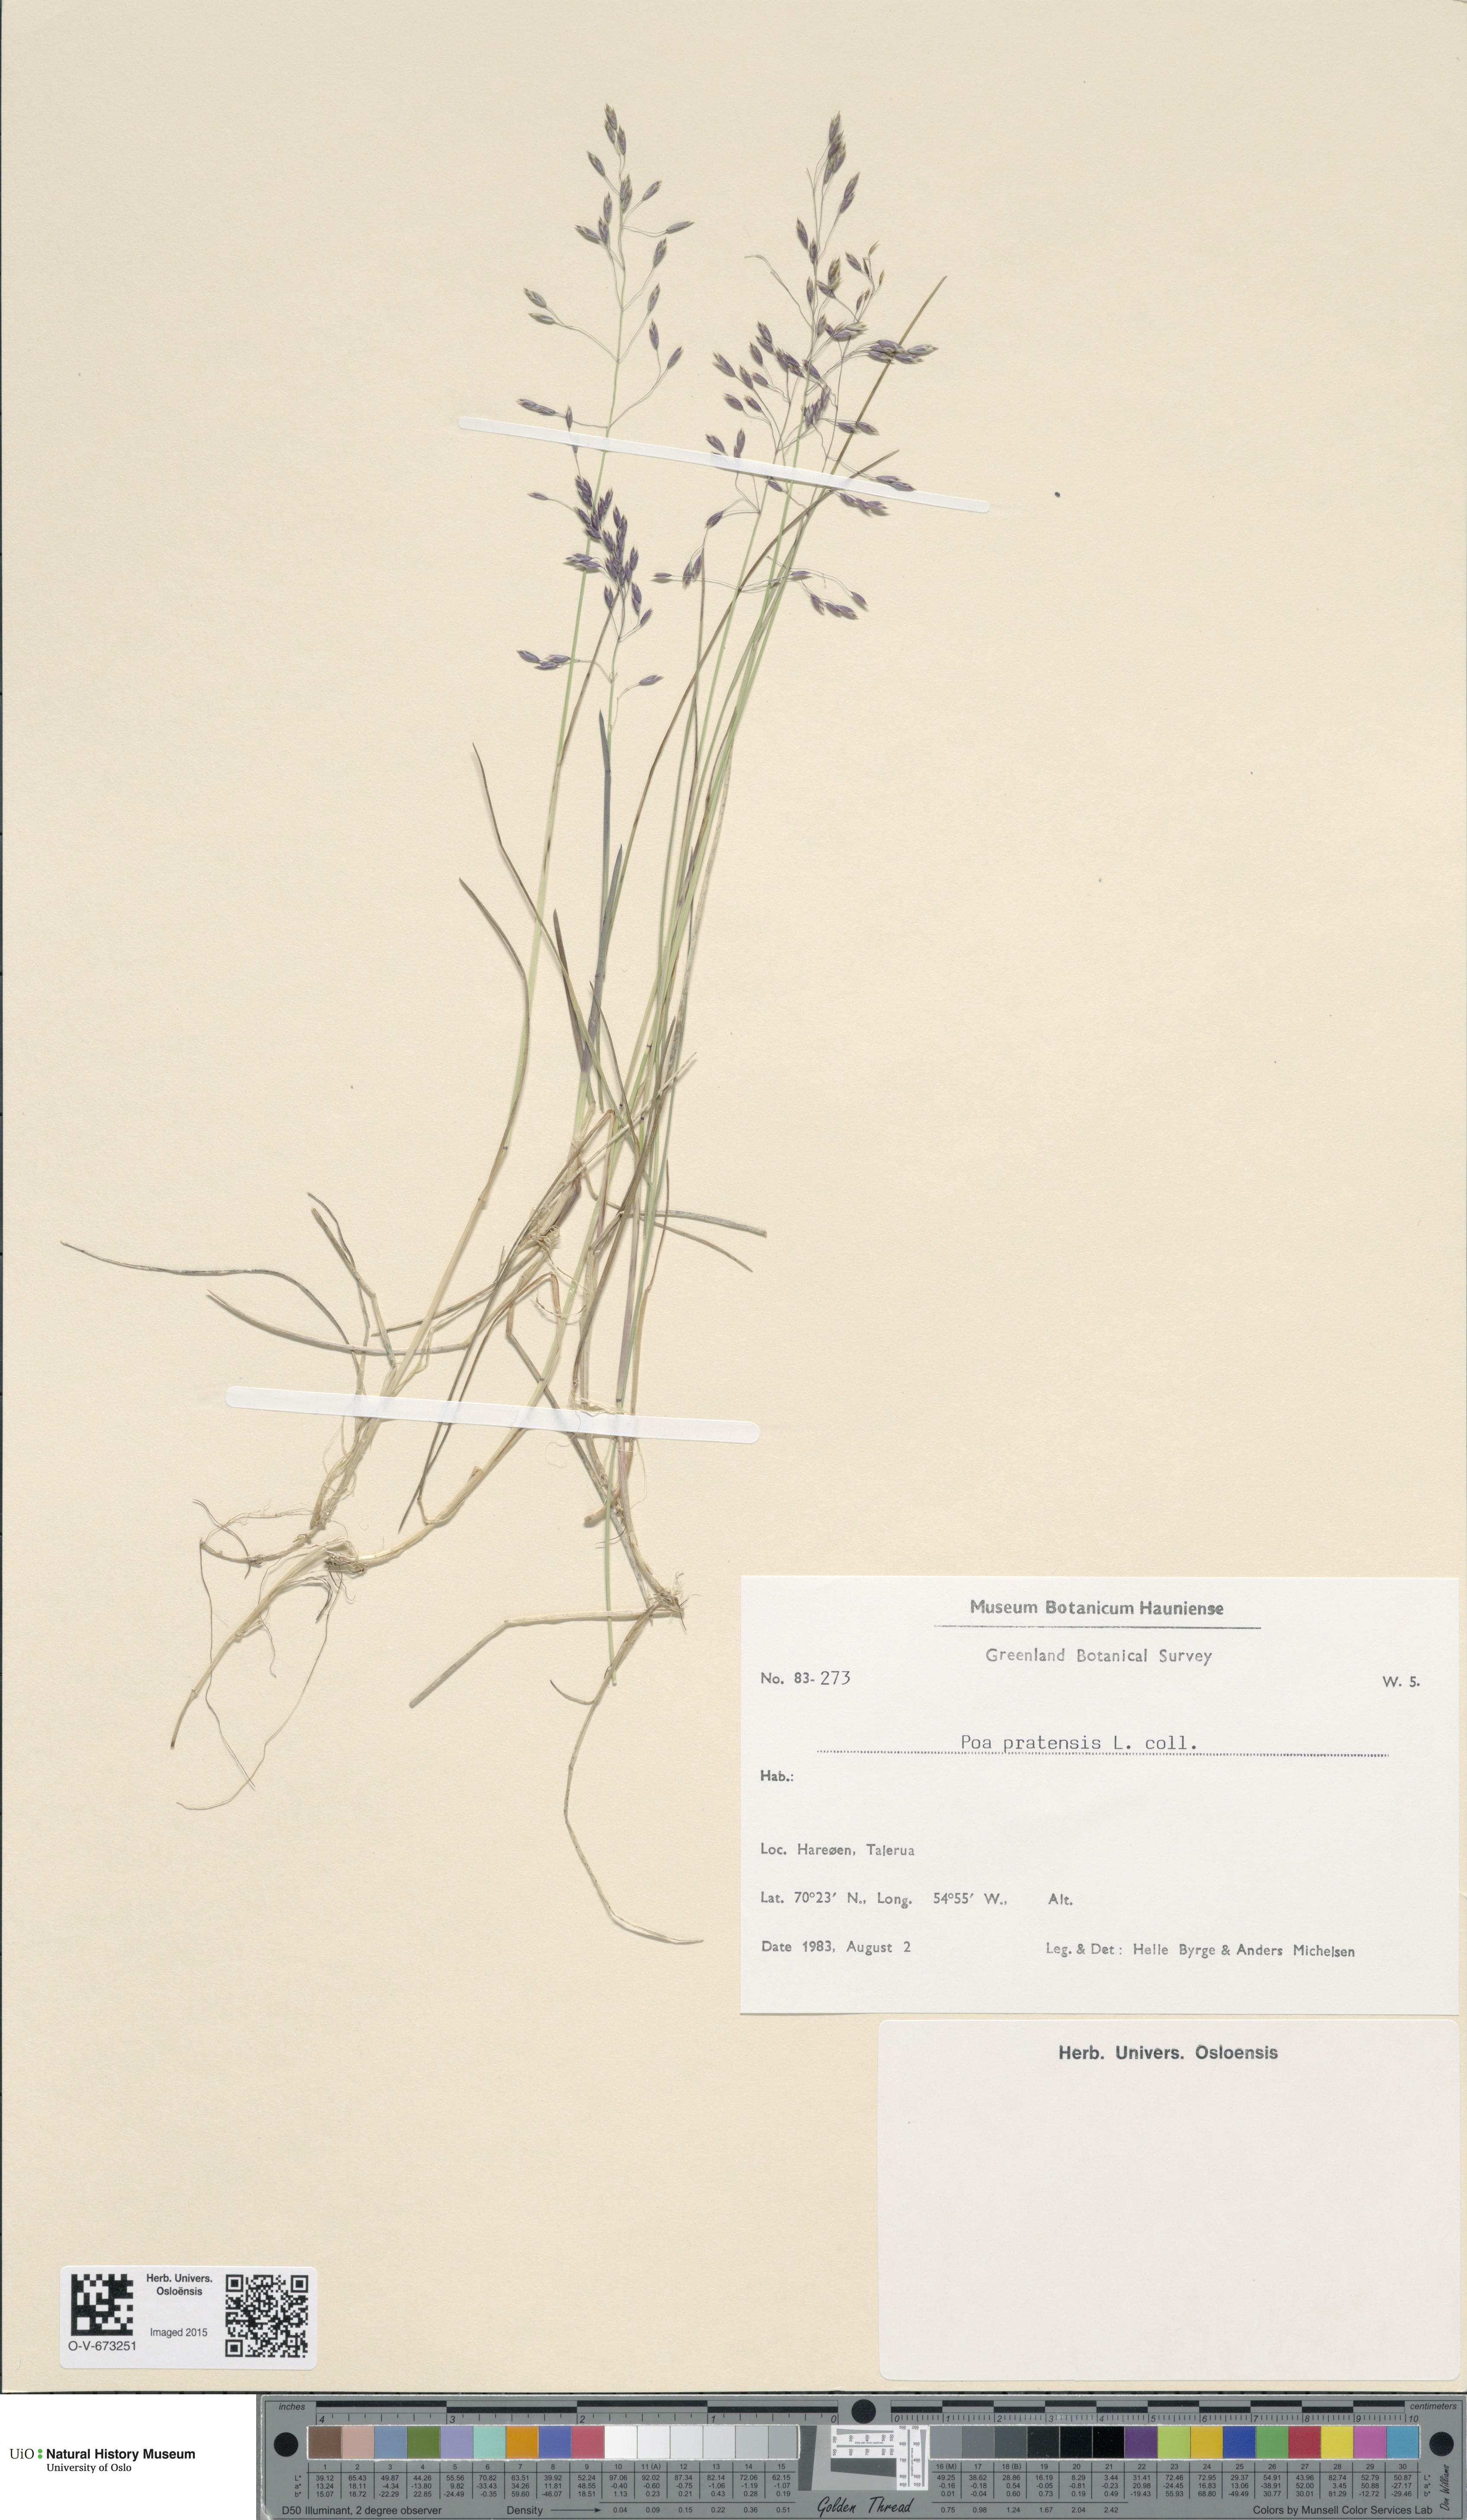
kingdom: Plantae
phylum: Tracheophyta
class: Liliopsida
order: Poales
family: Poaceae
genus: Poa
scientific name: Poa pratensis
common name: Kentucky bluegrass
